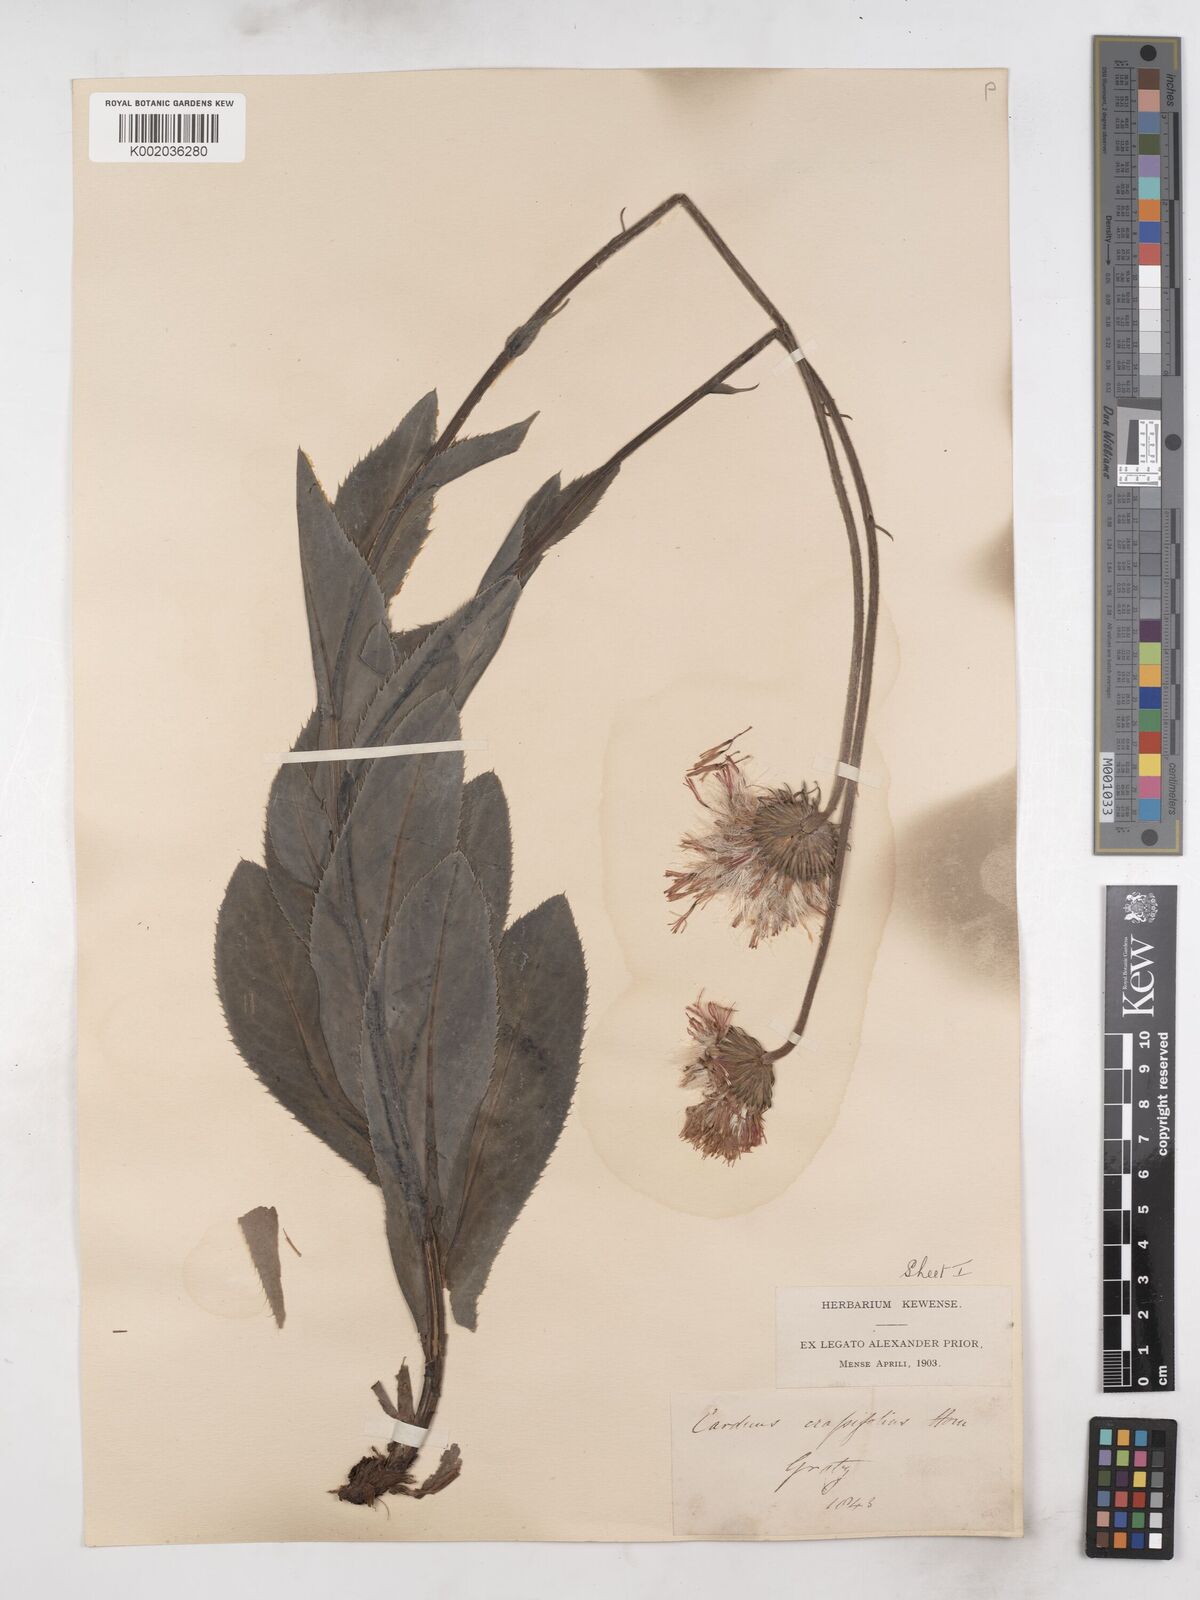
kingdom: Plantae
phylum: Tracheophyta
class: Magnoliopsida
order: Asterales
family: Asteraceae
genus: Carduus
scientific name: Carduus defloratus
